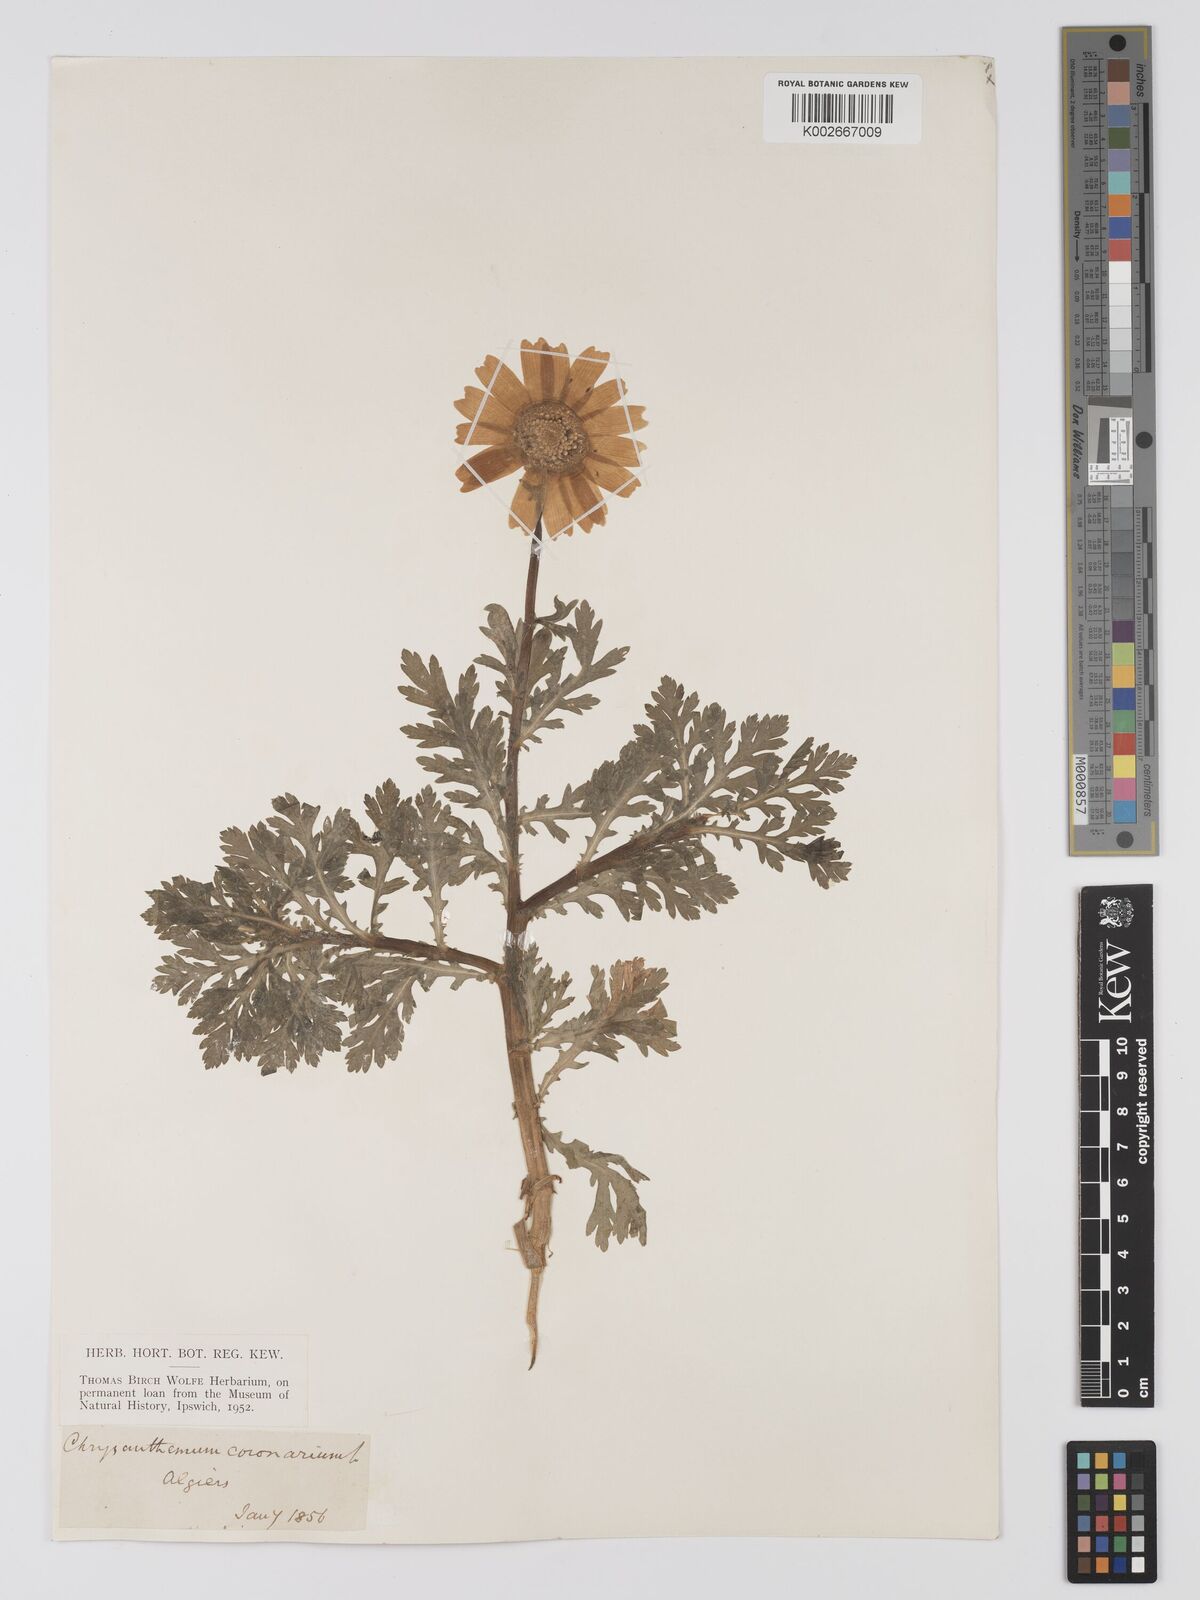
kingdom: Plantae
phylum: Tracheophyta
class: Magnoliopsida
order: Asterales
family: Asteraceae
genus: Glebionis
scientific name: Glebionis
